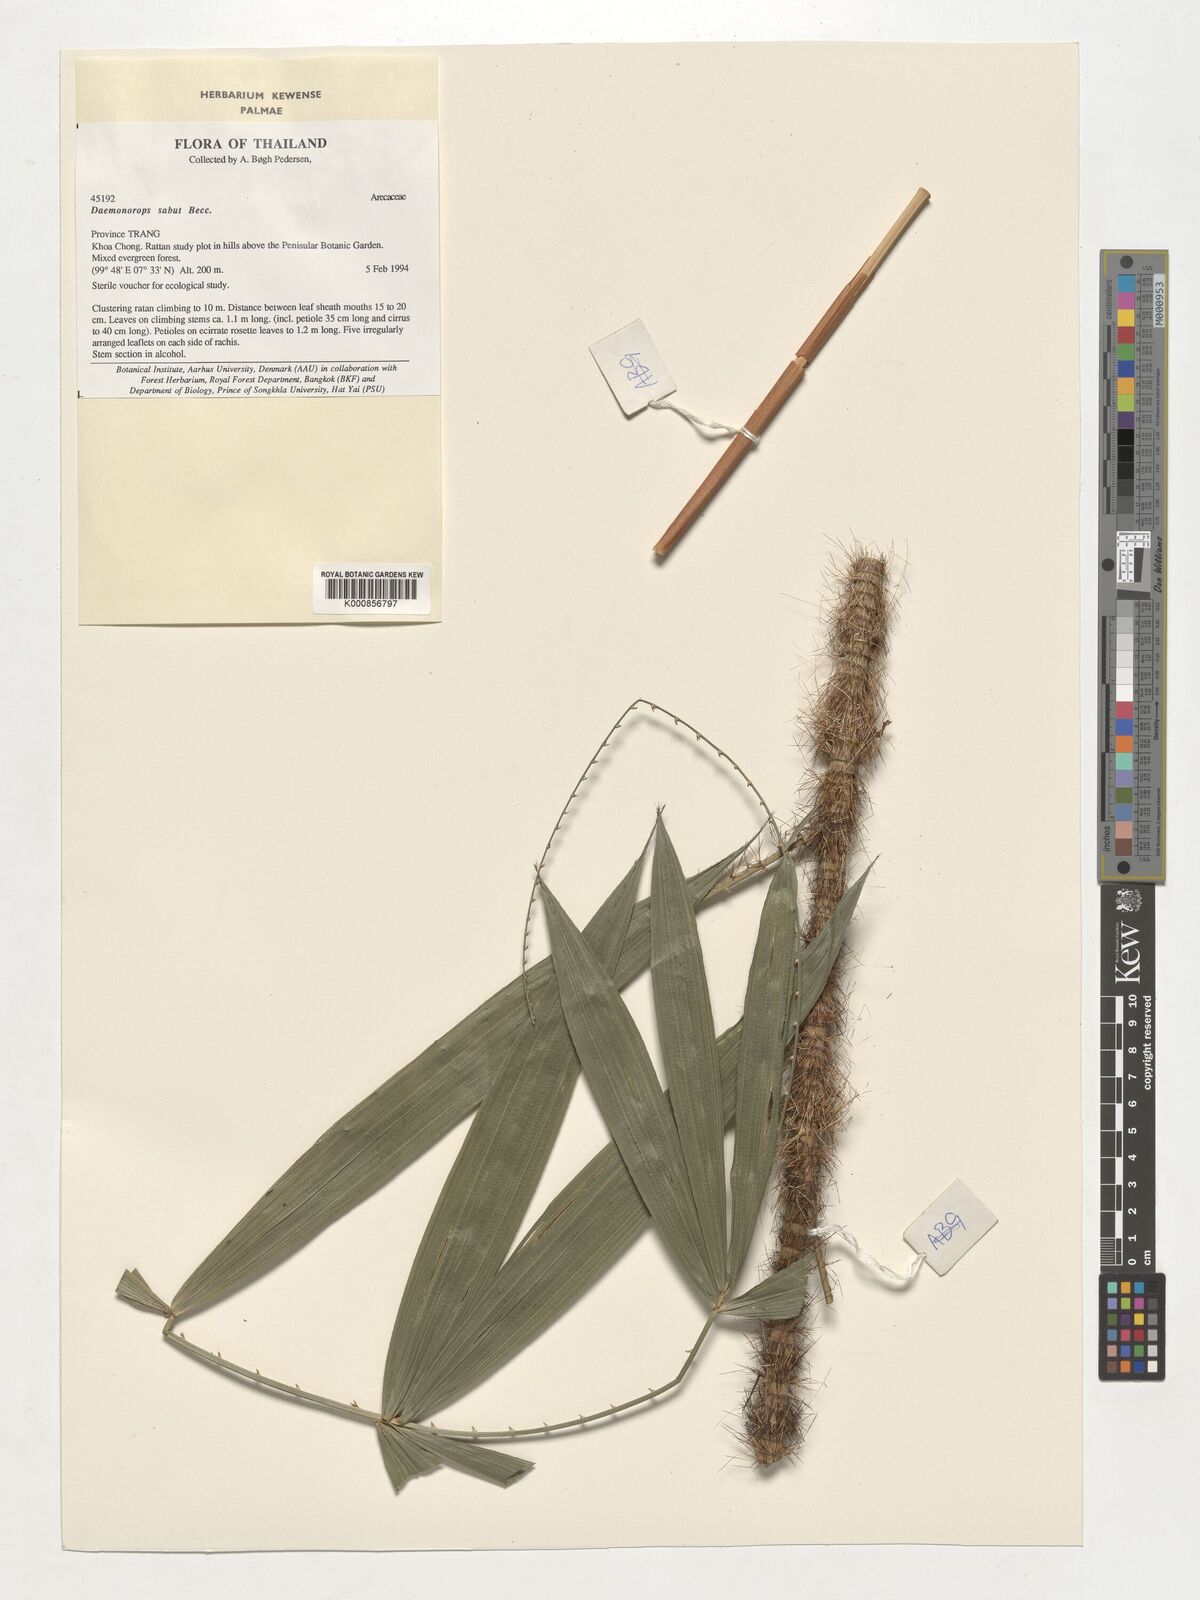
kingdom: Plantae
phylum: Tracheophyta
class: Liliopsida
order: Arecales
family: Arecaceae
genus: Calamus
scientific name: Calamus crinitus
